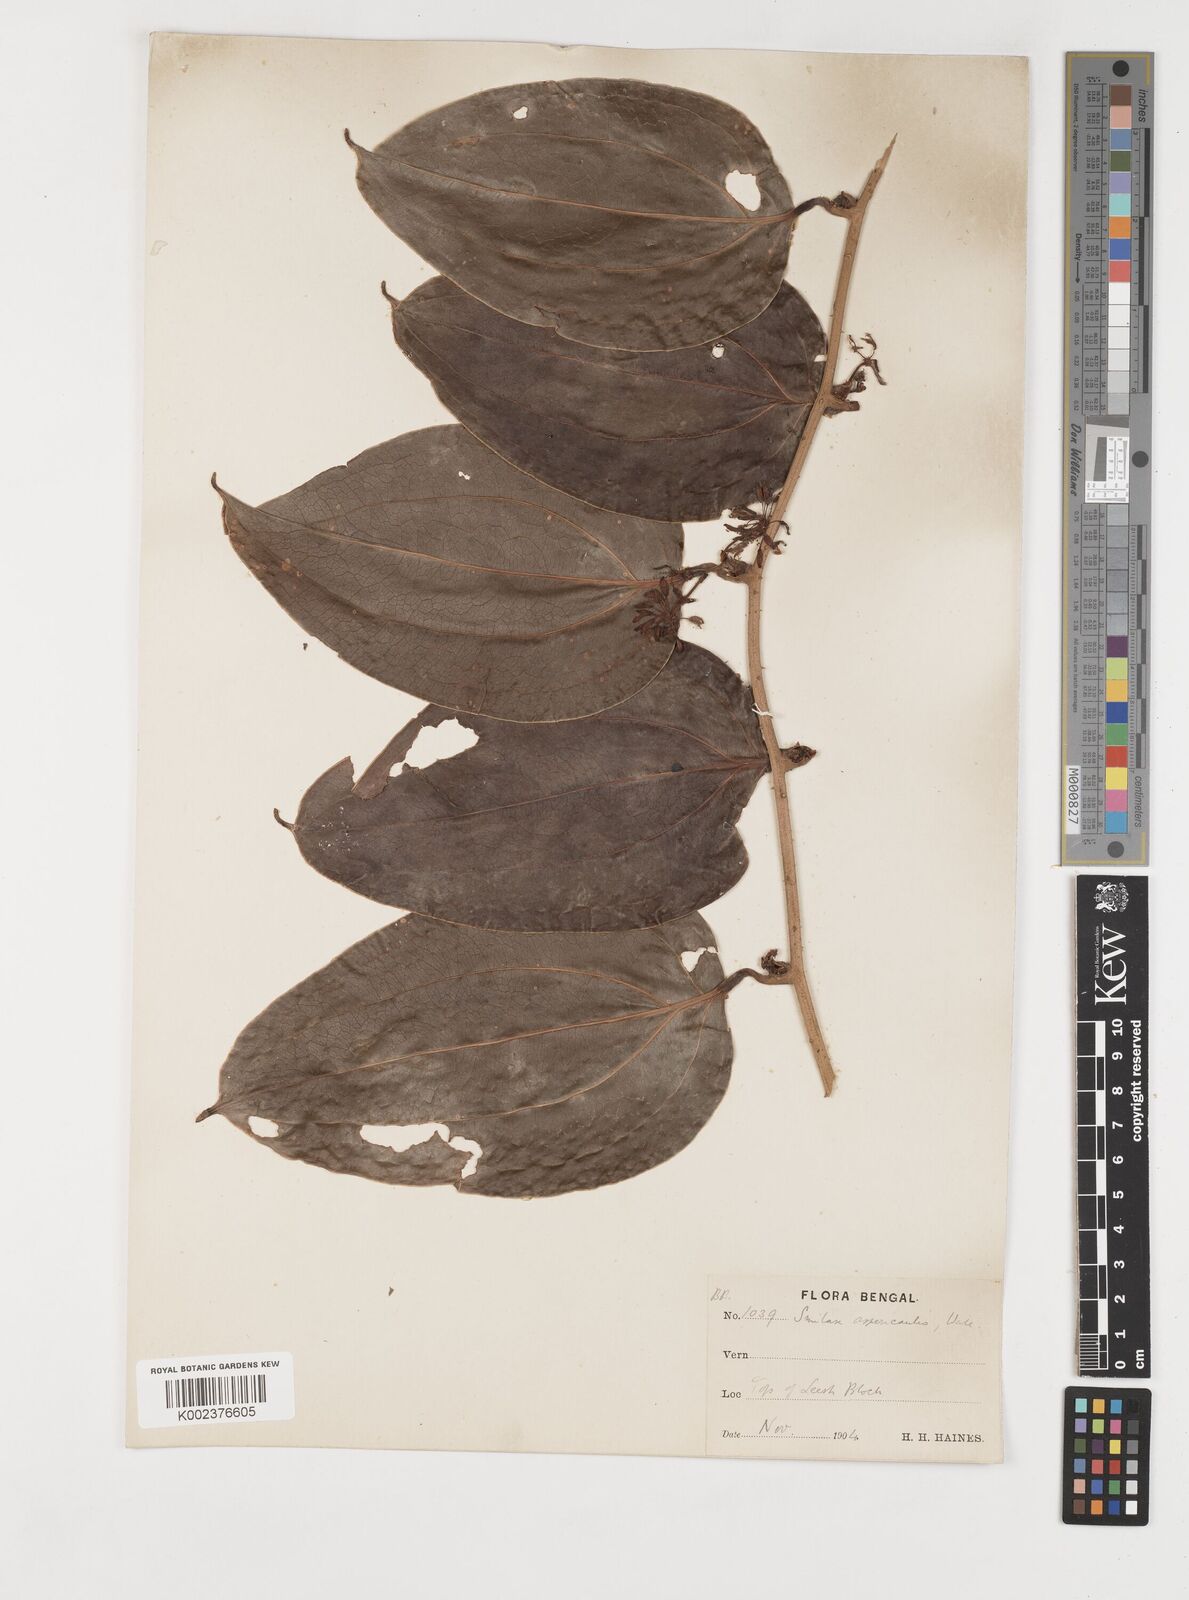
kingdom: Plantae
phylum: Tracheophyta
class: Liliopsida
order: Liliales
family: Smilacaceae
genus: Smilax
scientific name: Smilax aspericaulis
